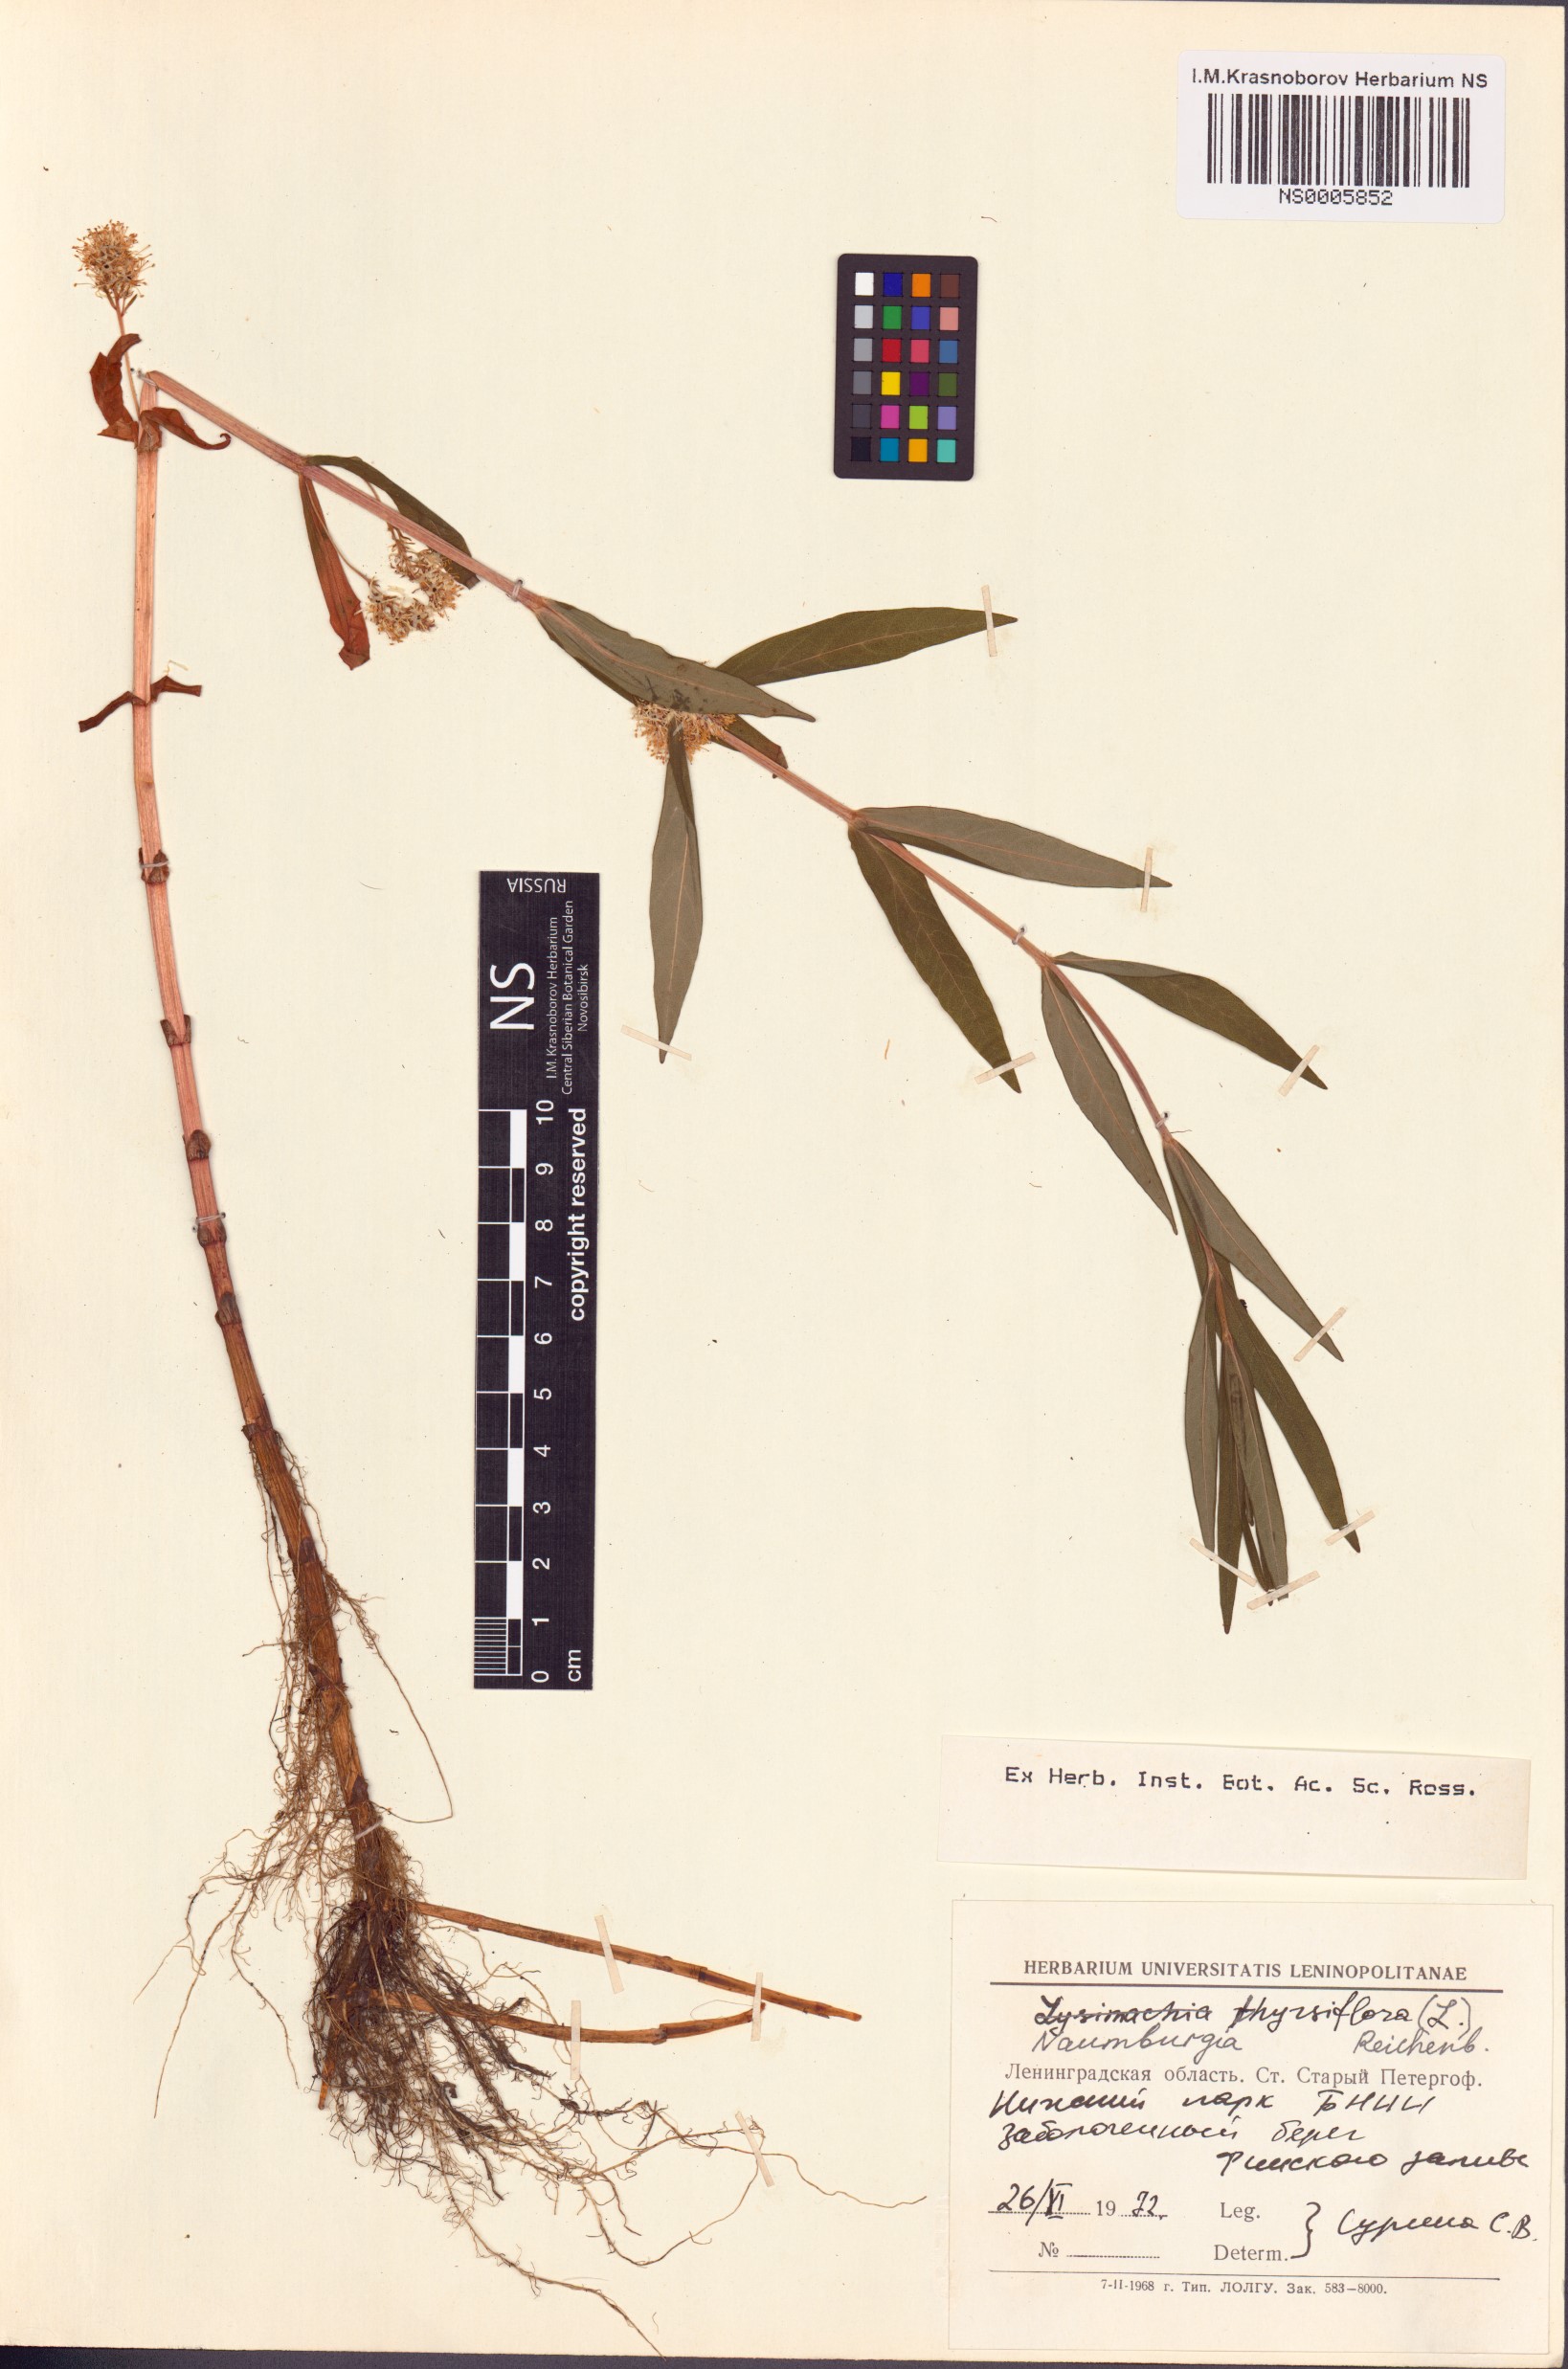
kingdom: Plantae
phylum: Tracheophyta
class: Magnoliopsida
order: Ericales
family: Primulaceae
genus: Lysimachia
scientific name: Lysimachia thyrsiflora
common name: Tufted loosestrife
